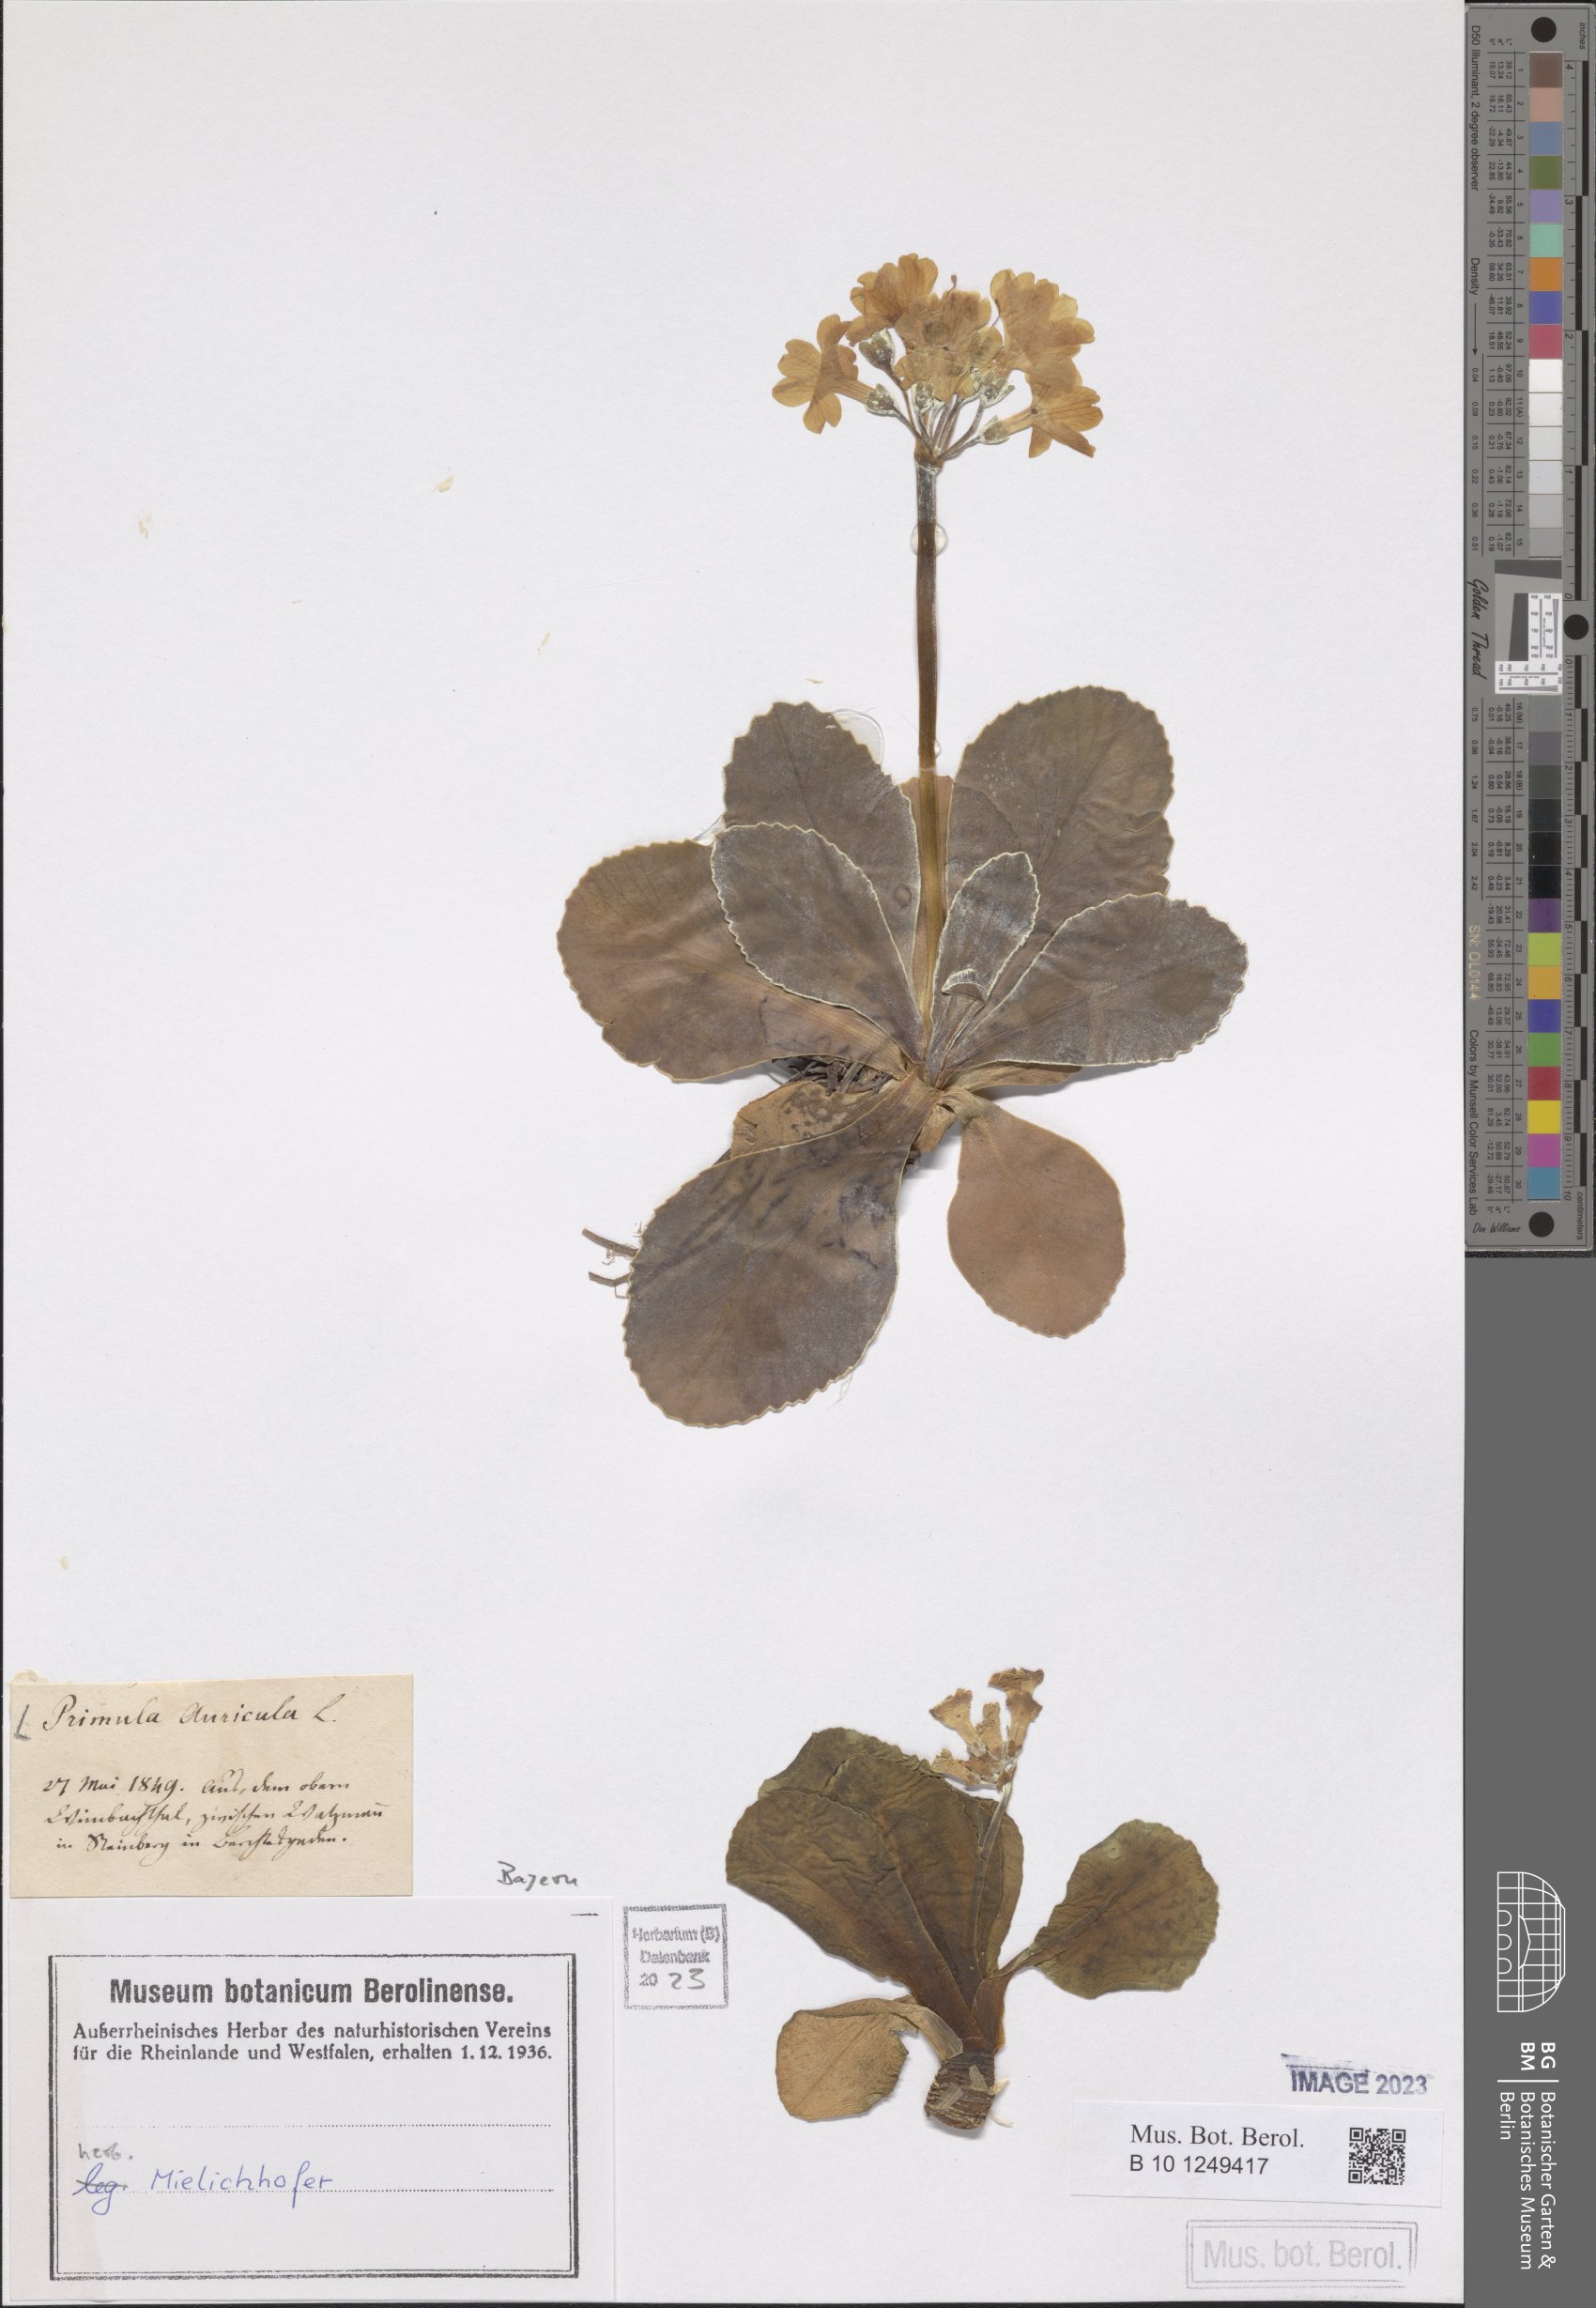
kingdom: Plantae
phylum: Tracheophyta
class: Magnoliopsida
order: Ericales
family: Primulaceae
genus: Primula
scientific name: Primula auricula
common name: Auricula
